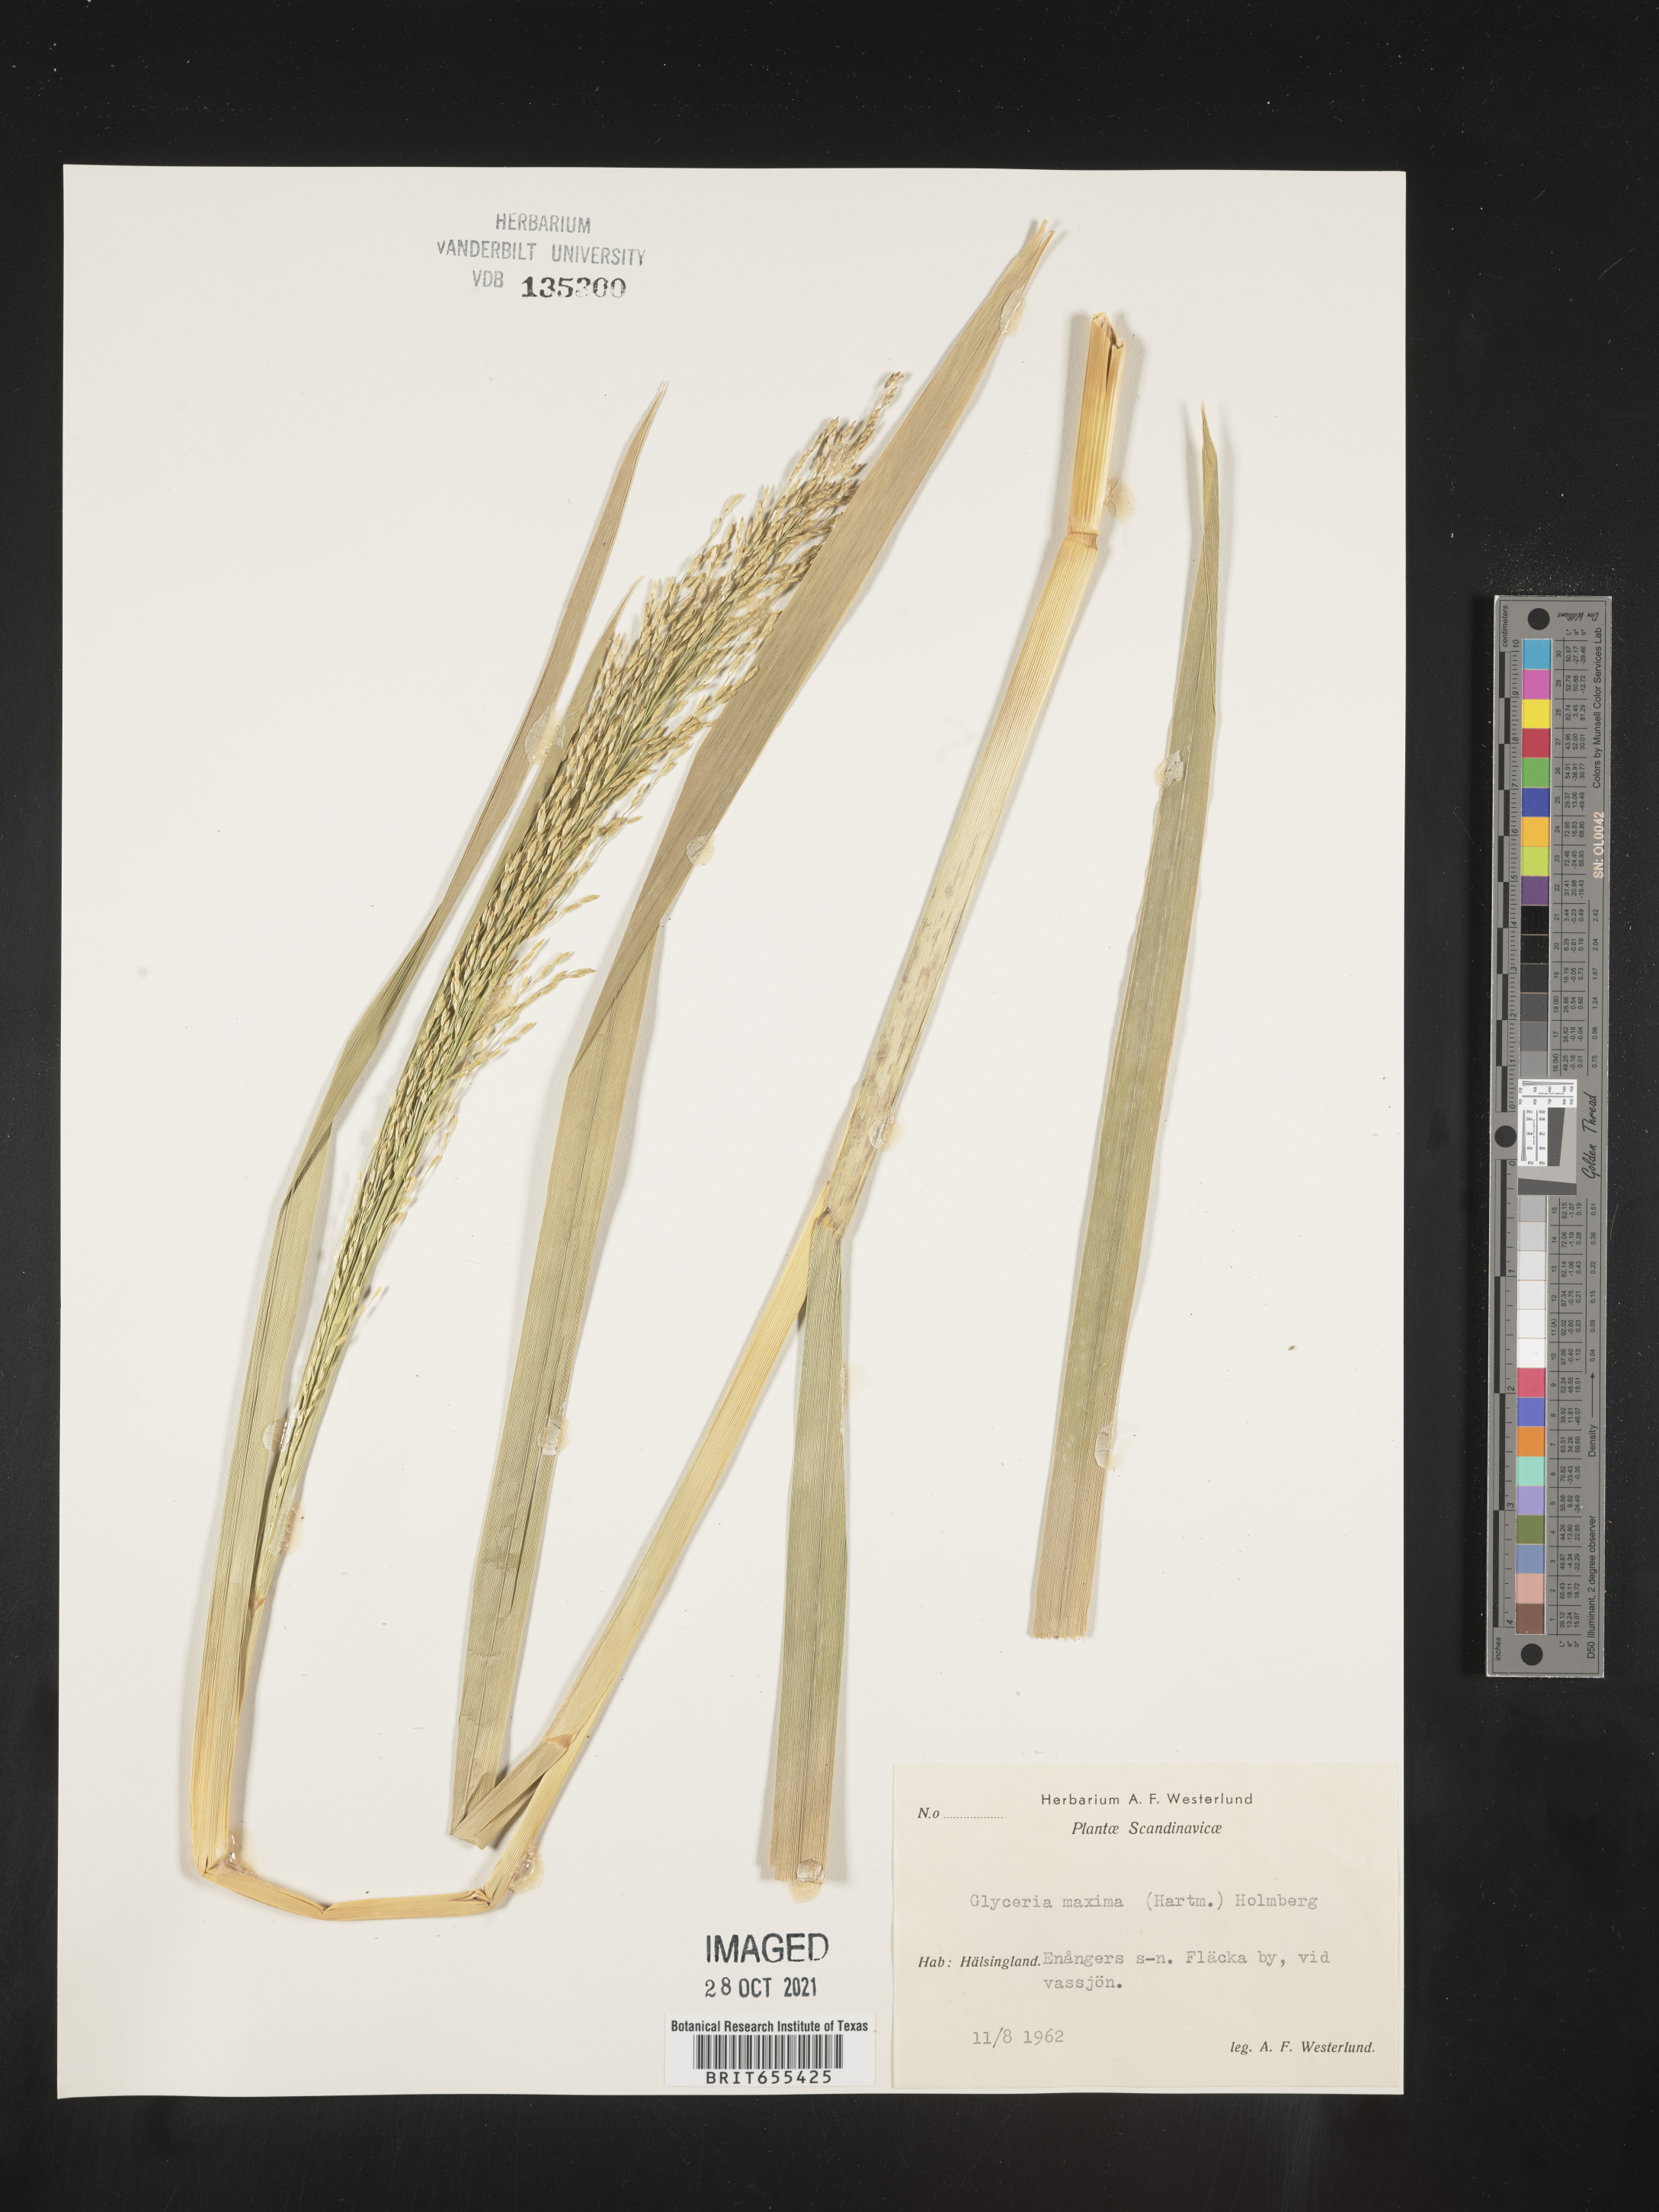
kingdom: Plantae
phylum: Tracheophyta
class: Liliopsida
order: Poales
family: Poaceae
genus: Glyceria
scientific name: Glyceria
